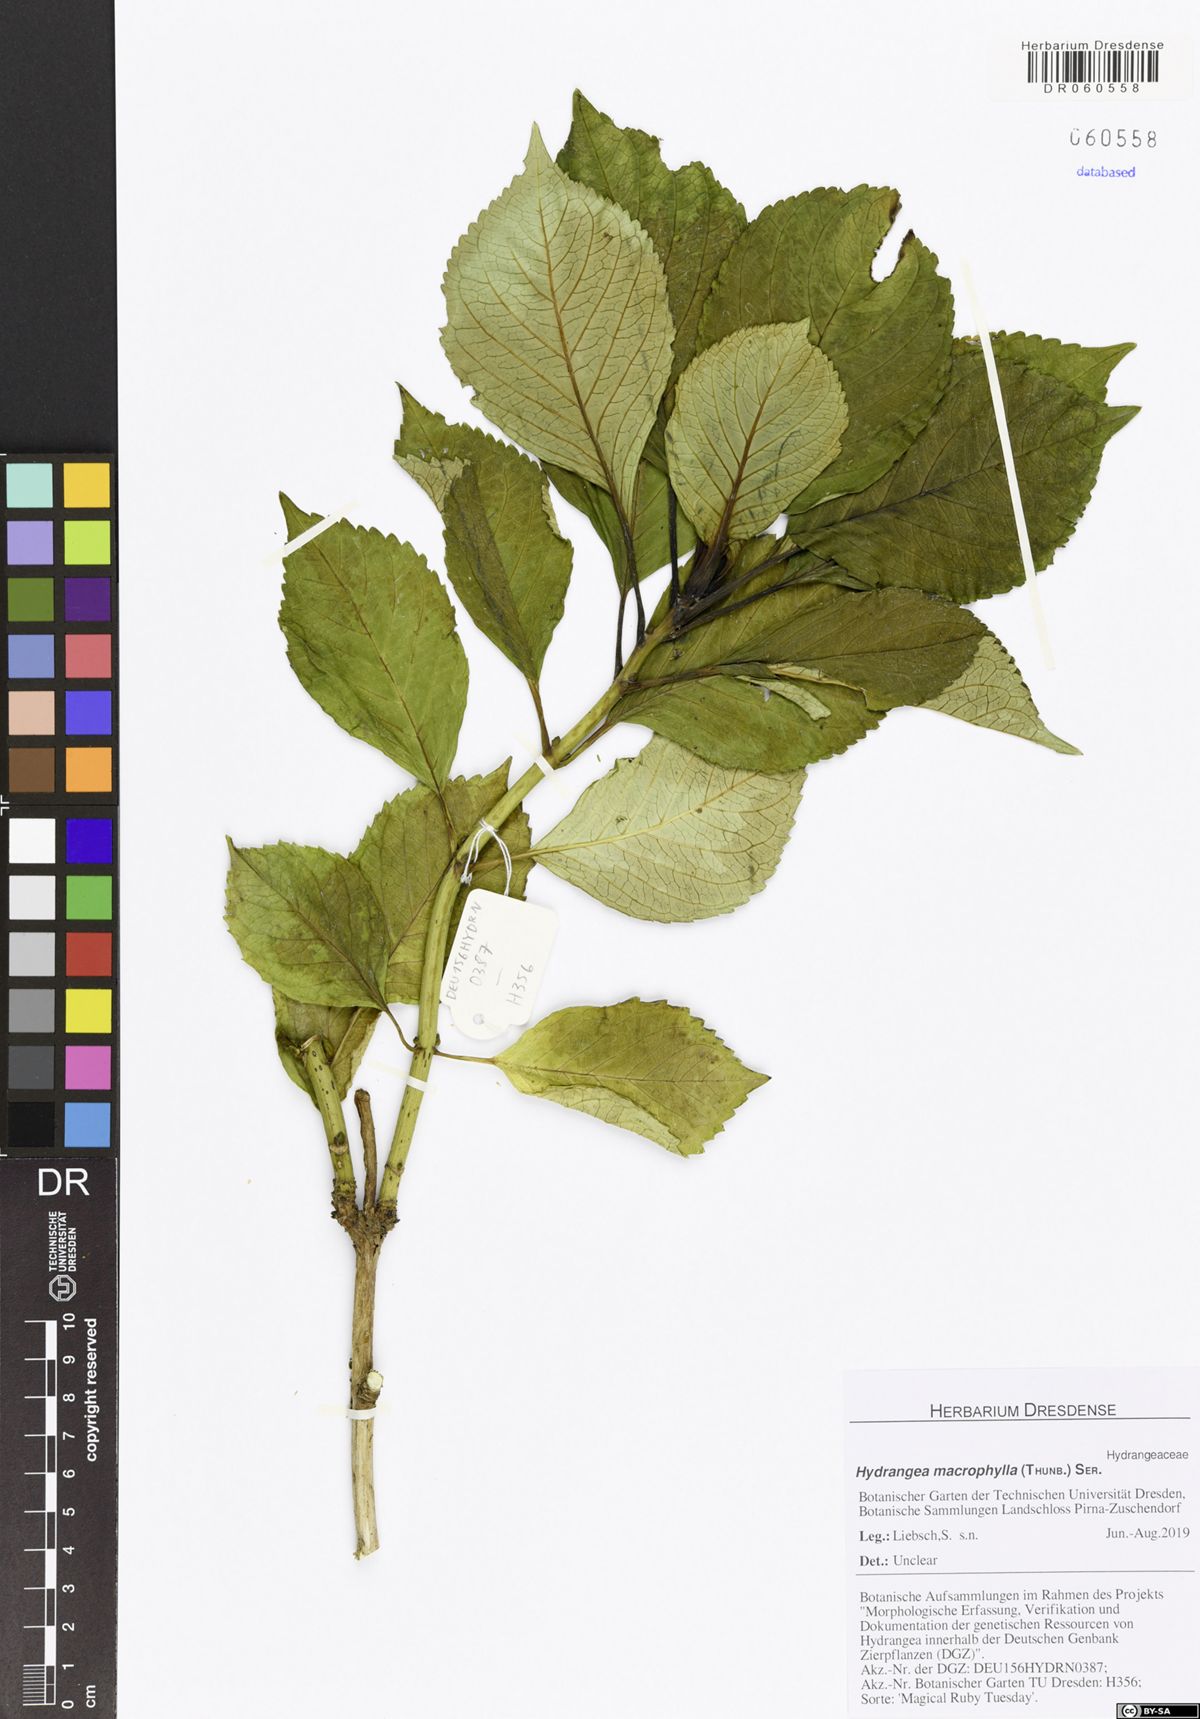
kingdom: Plantae
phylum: Tracheophyta
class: Magnoliopsida
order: Cornales
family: Hydrangeaceae
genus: Hydrangea
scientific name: Hydrangea macrophylla
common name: Hydrangea
